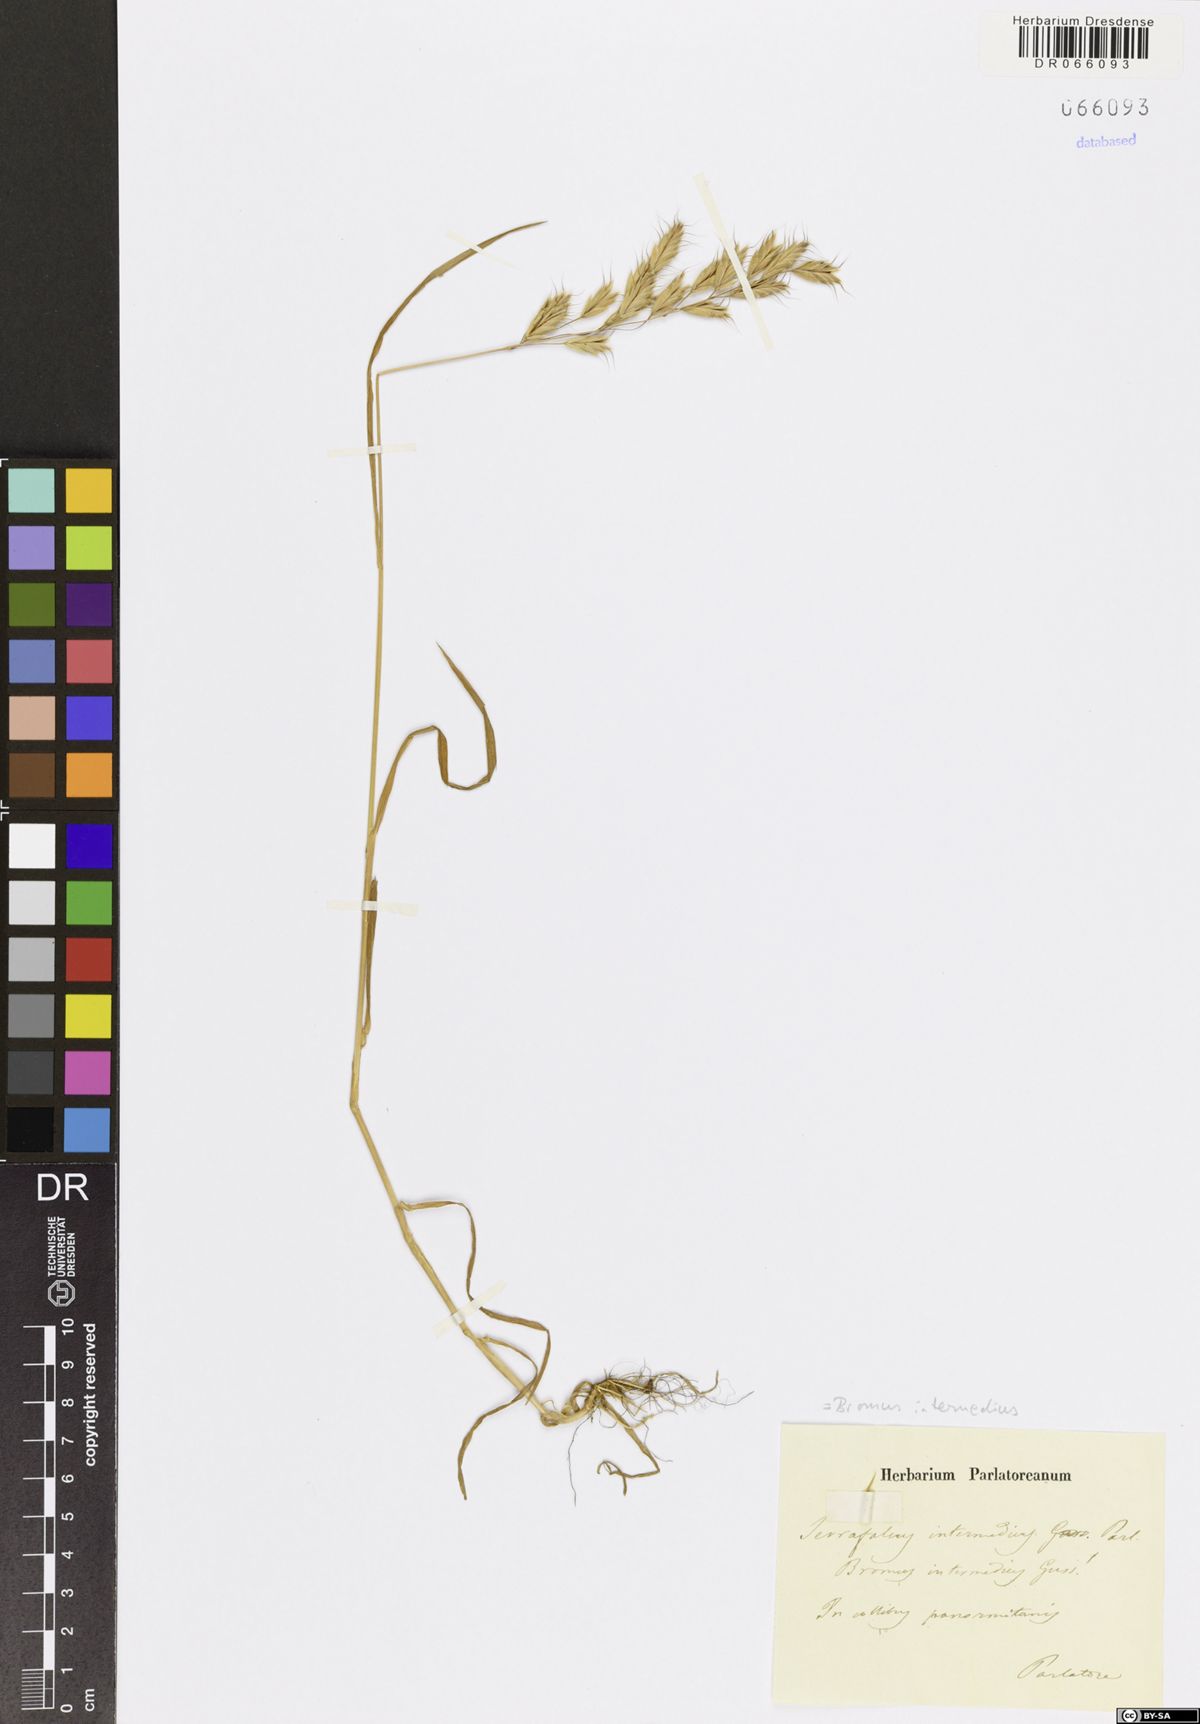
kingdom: Plantae
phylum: Tracheophyta
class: Liliopsida
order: Poales
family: Poaceae
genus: Bromus
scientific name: Bromus intermedius
